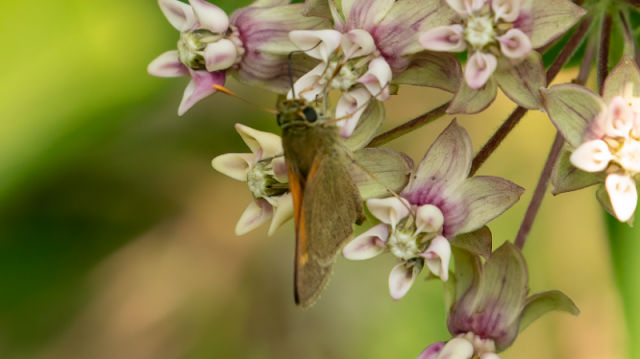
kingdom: Animalia
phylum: Arthropoda
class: Insecta
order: Lepidoptera
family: Hesperiidae
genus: Polites
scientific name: Polites themistocles
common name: Tawny-edged Skipper
